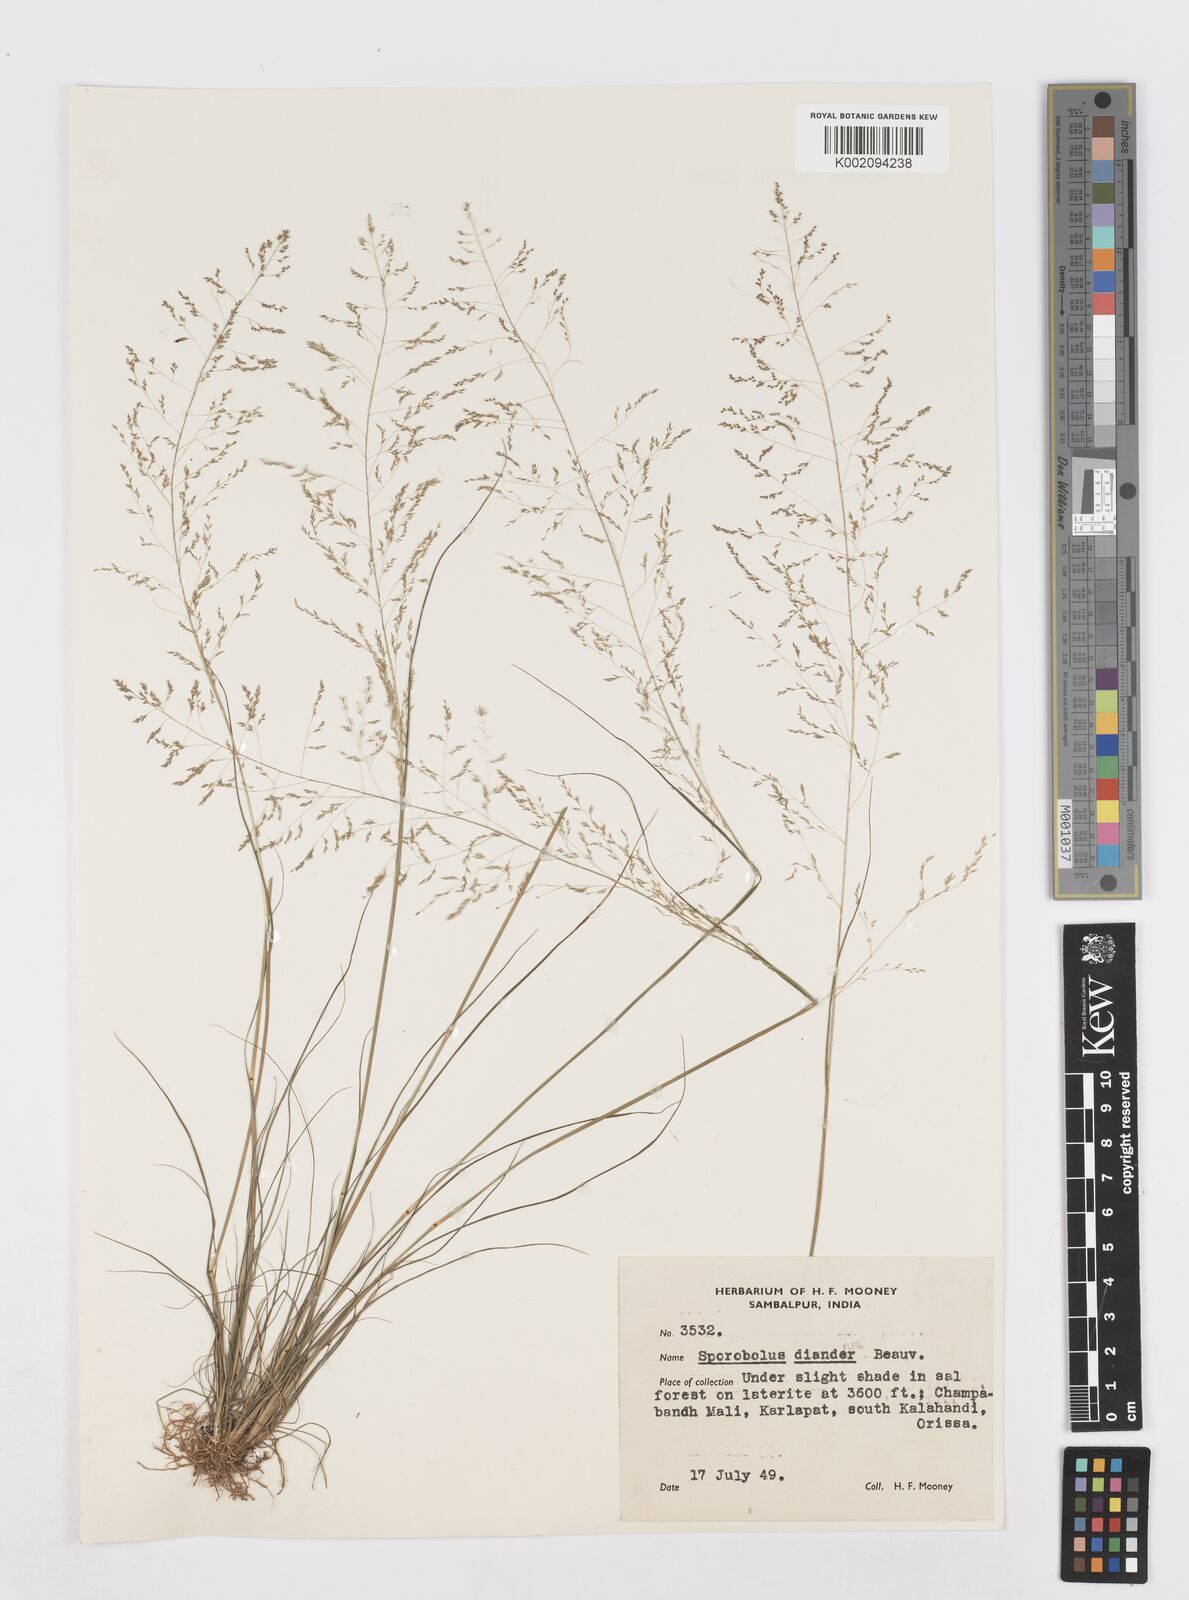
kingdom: Plantae
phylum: Tracheophyta
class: Liliopsida
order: Poales
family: Poaceae
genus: Sporobolus
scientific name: Sporobolus diandrus
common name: Tussock dropseed
